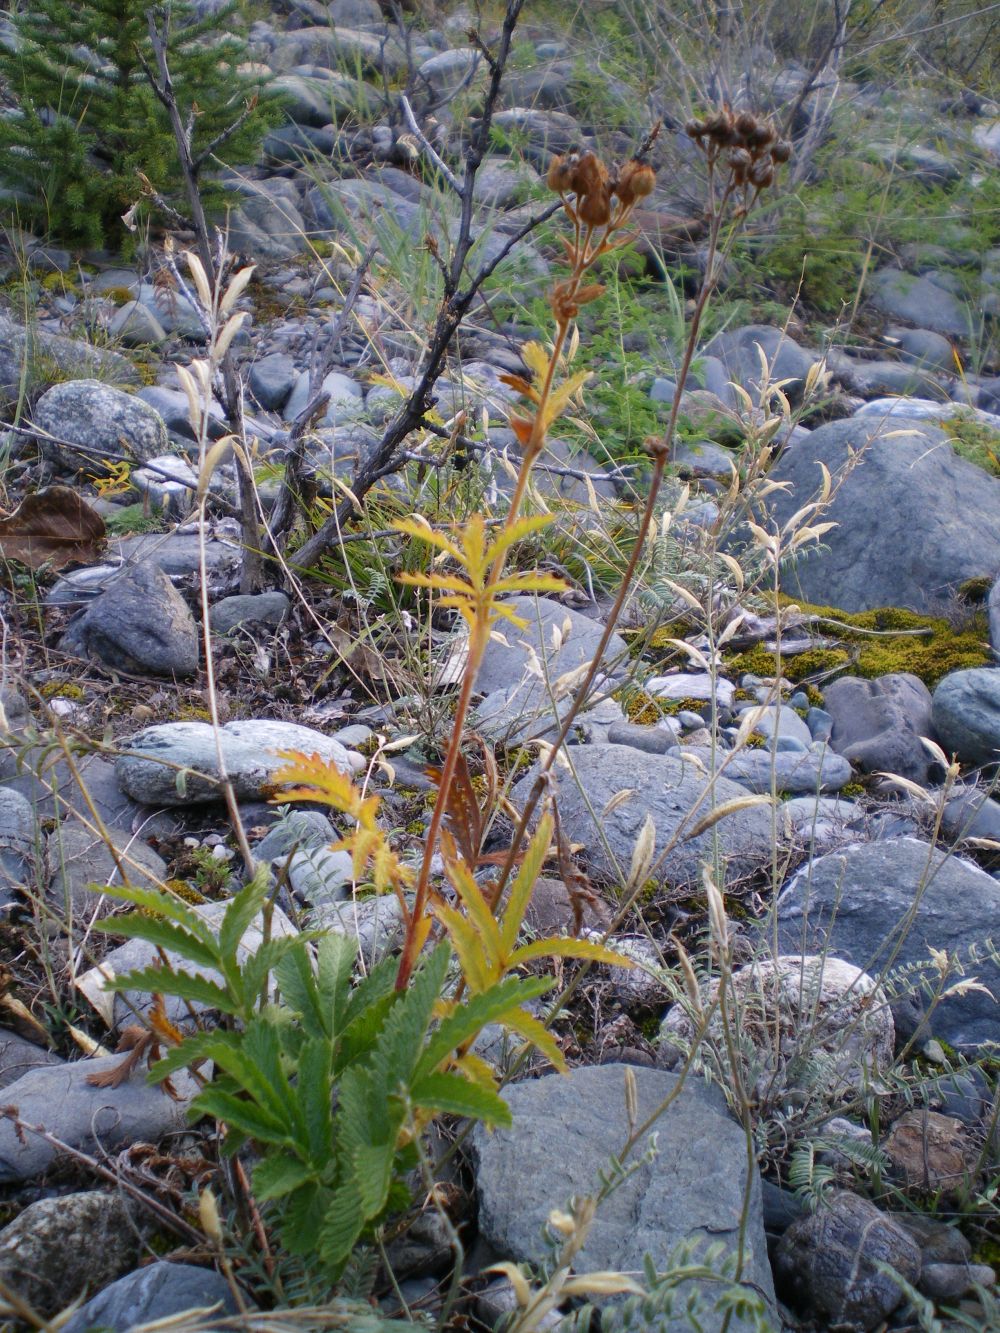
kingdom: Plantae
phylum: Tracheophyta
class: Magnoliopsida
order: Rosales
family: Rosaceae
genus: Potentilla
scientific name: Potentilla longifolia
